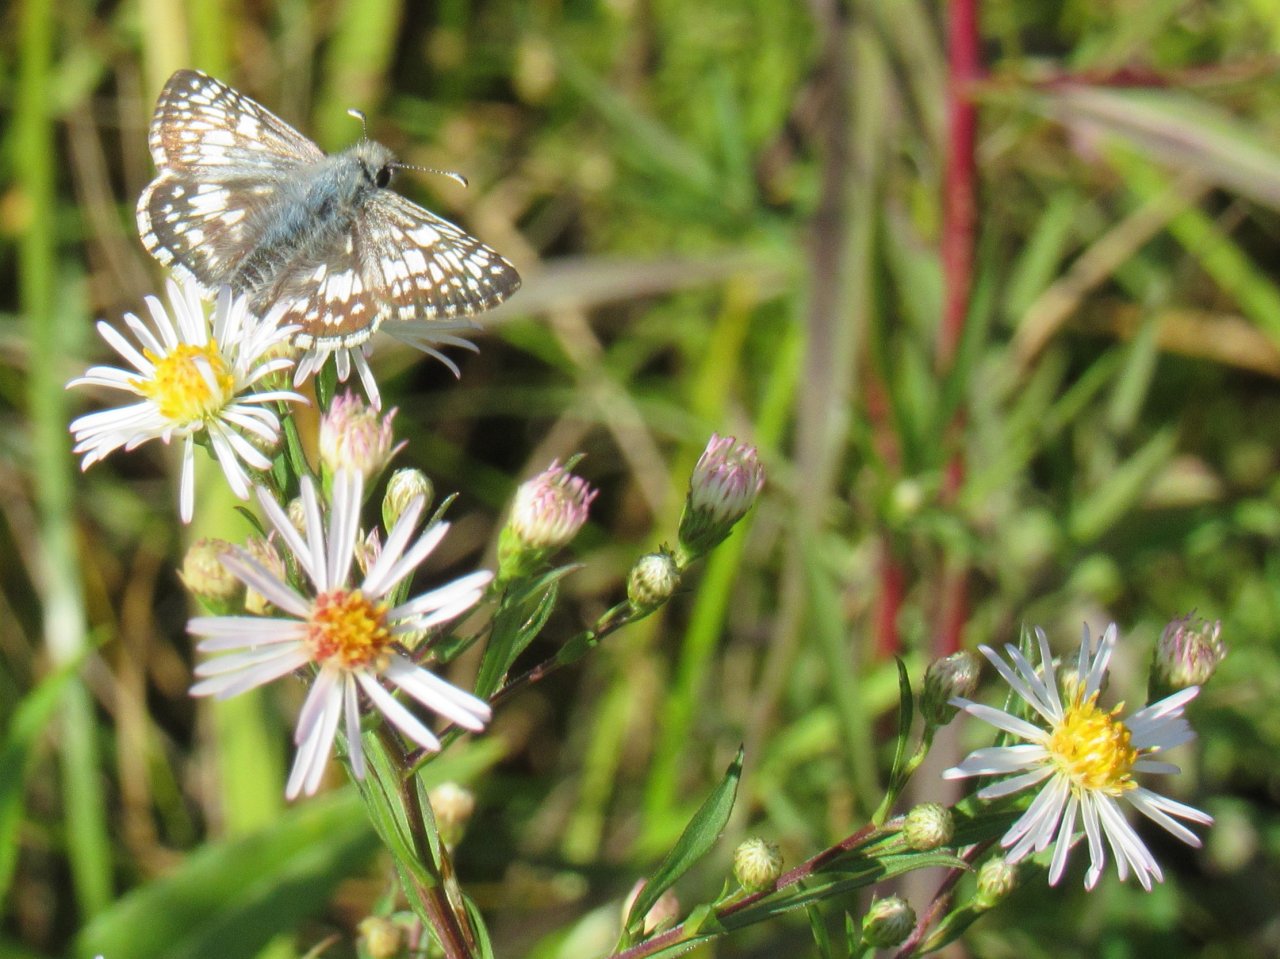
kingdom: Animalia
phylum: Arthropoda
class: Insecta
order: Lepidoptera
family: Hesperiidae
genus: Pyrgus
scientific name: Pyrgus communis
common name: Common Checkered-Skipper
